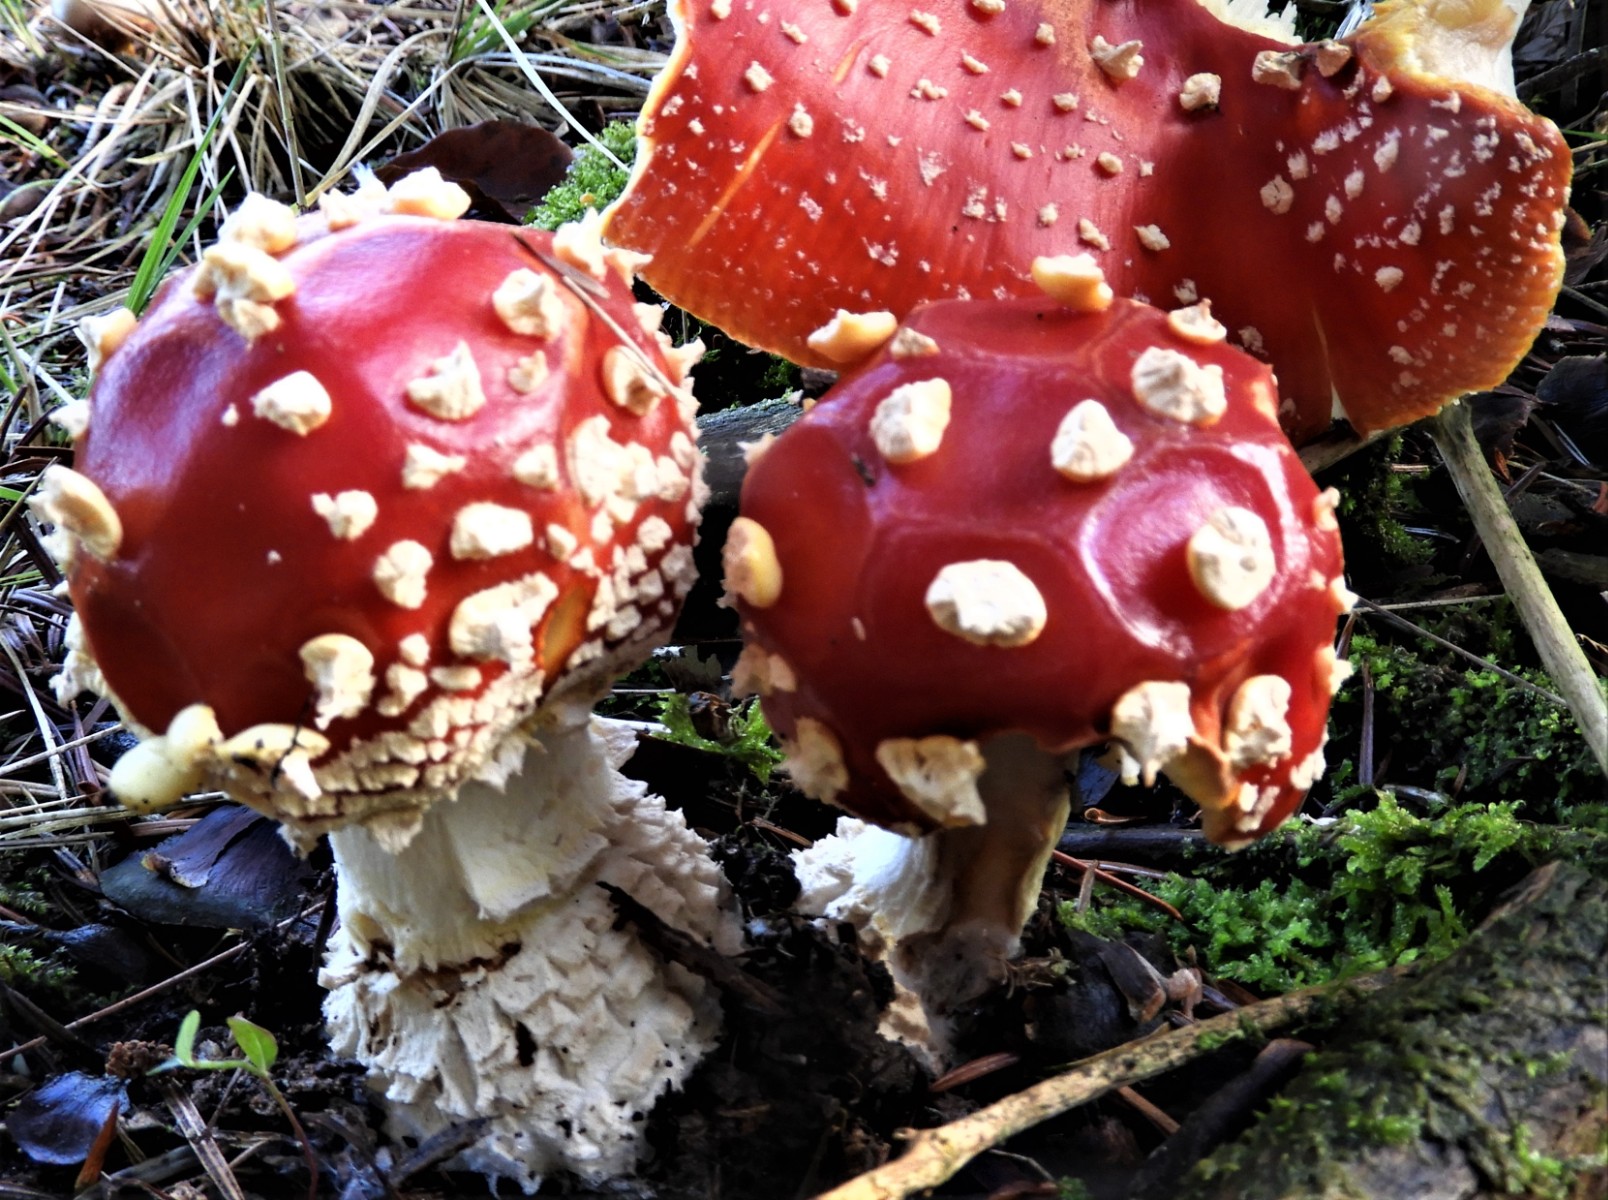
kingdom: Fungi
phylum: Basidiomycota
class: Agaricomycetes
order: Agaricales
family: Amanitaceae
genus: Amanita
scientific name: Amanita muscaria
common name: rød fluesvamp
